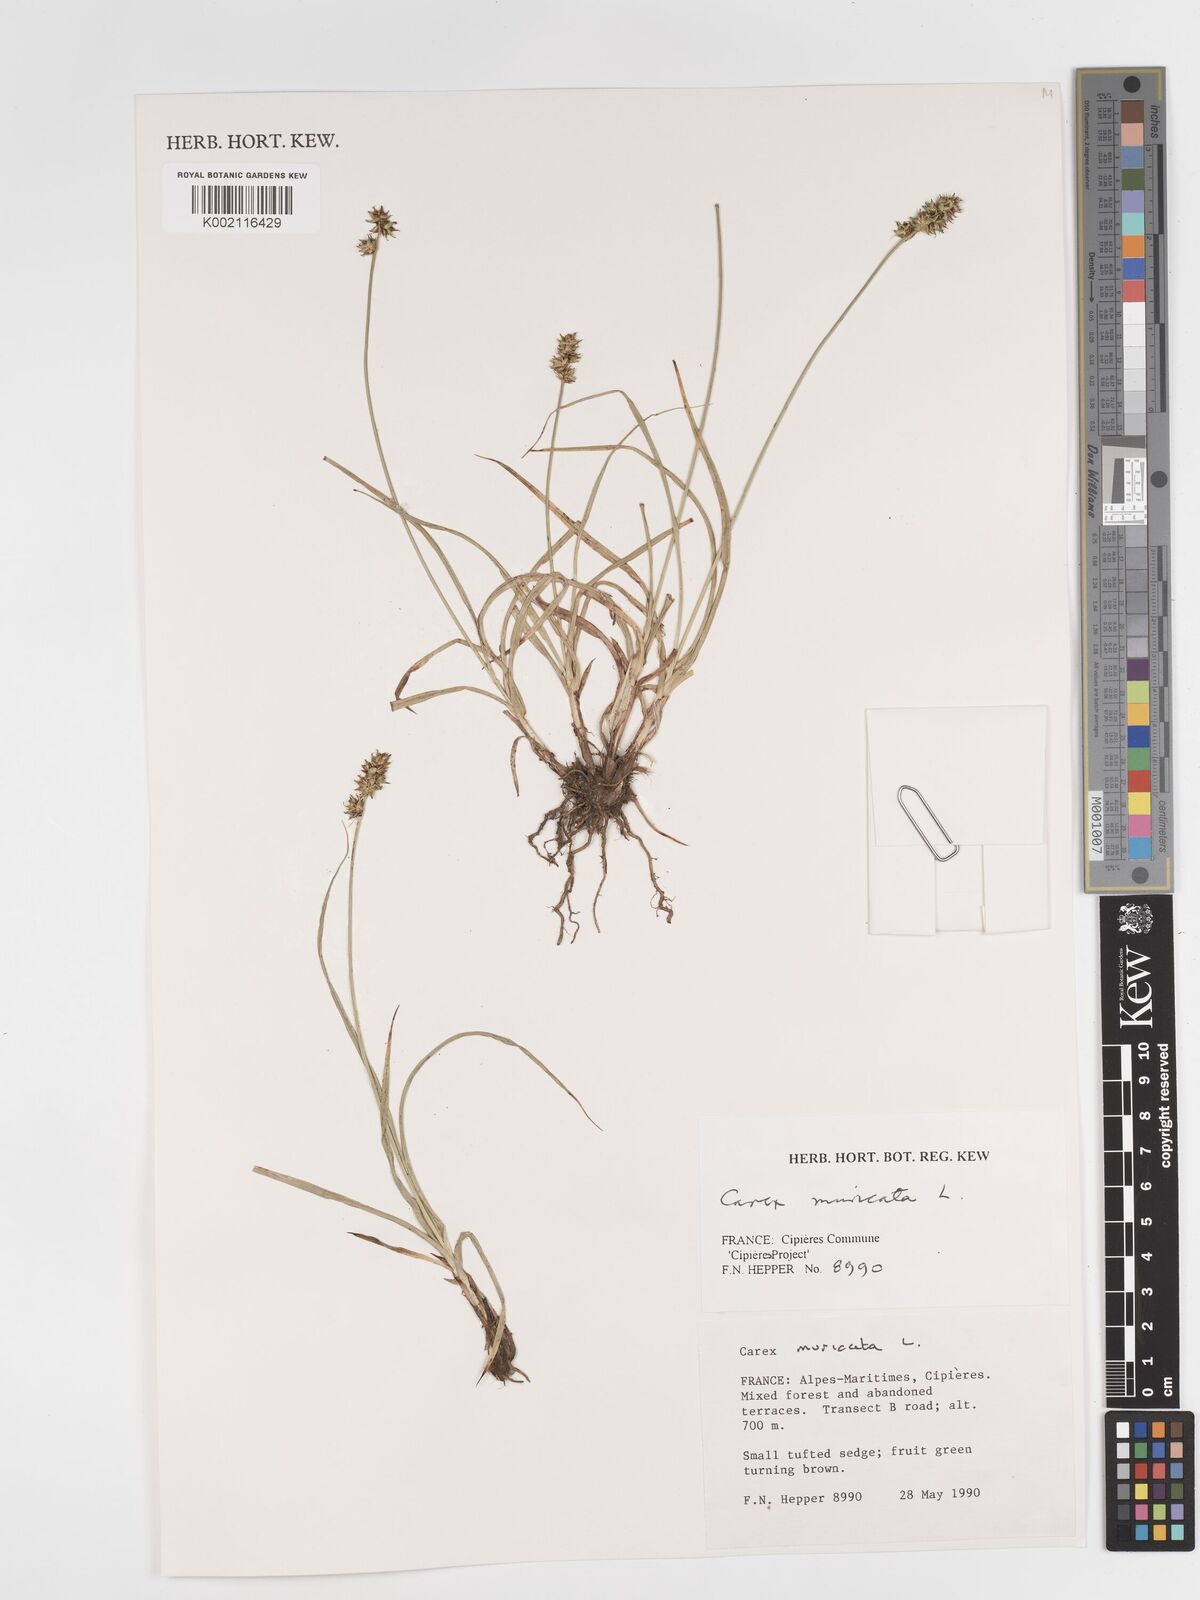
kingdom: Plantae
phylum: Tracheophyta
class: Liliopsida
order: Poales
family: Cyperaceae
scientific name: Cyperaceae
